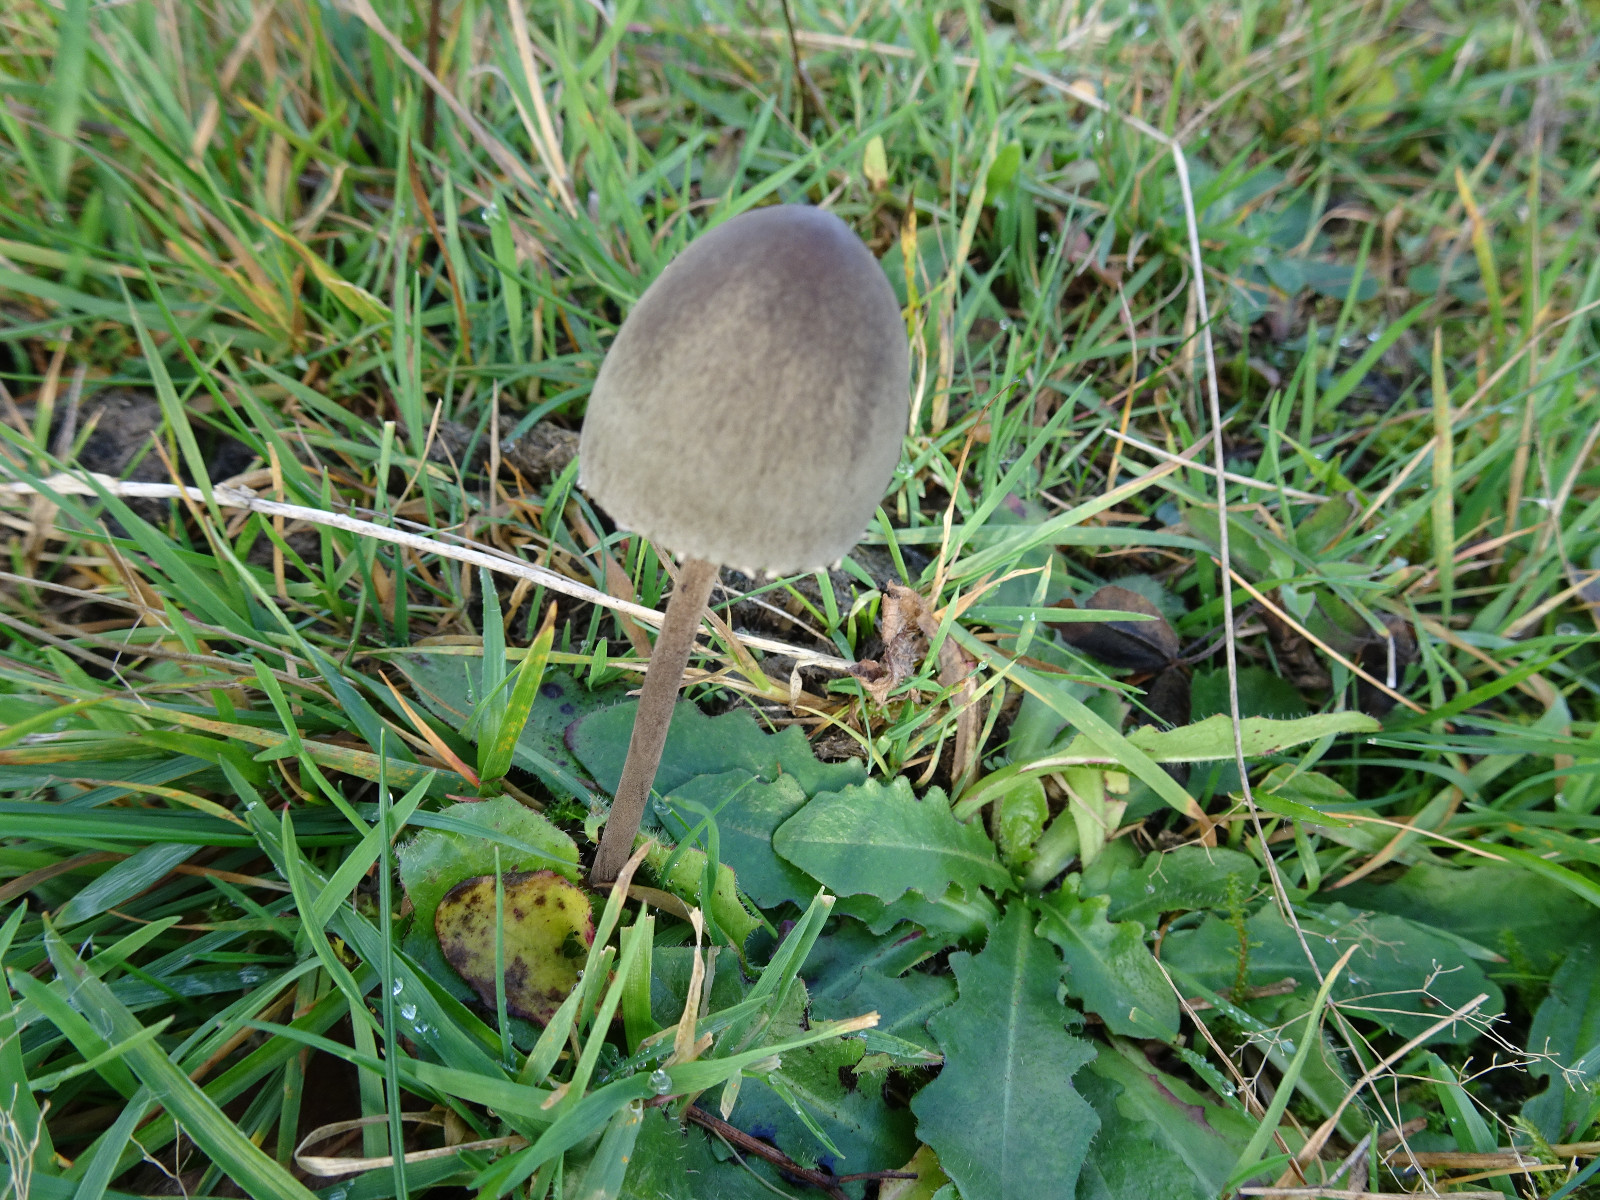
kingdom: Fungi
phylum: Basidiomycota
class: Agaricomycetes
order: Agaricales
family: Bolbitiaceae
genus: Panaeolus
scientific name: Panaeolus papilionaceus
